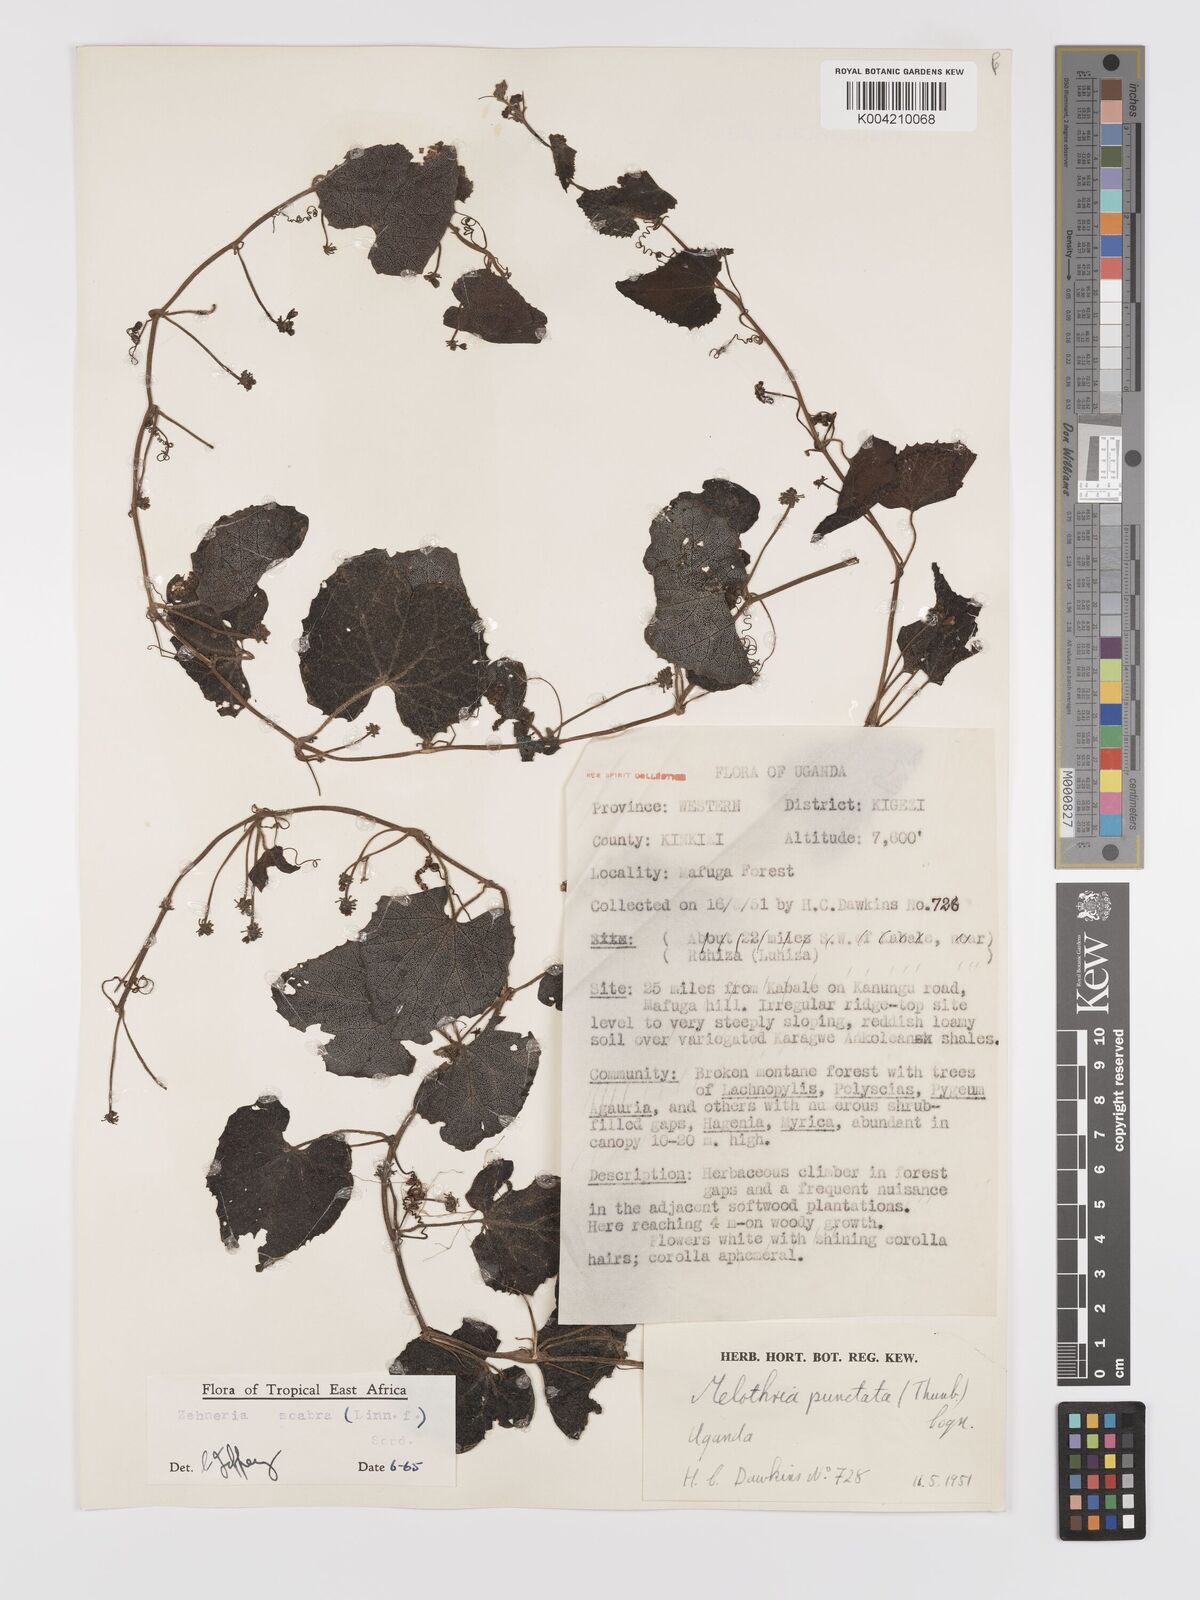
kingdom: Plantae
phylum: Tracheophyta
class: Magnoliopsida
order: Cucurbitales
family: Cucurbitaceae
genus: Zehneria
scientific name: Zehneria scabra
